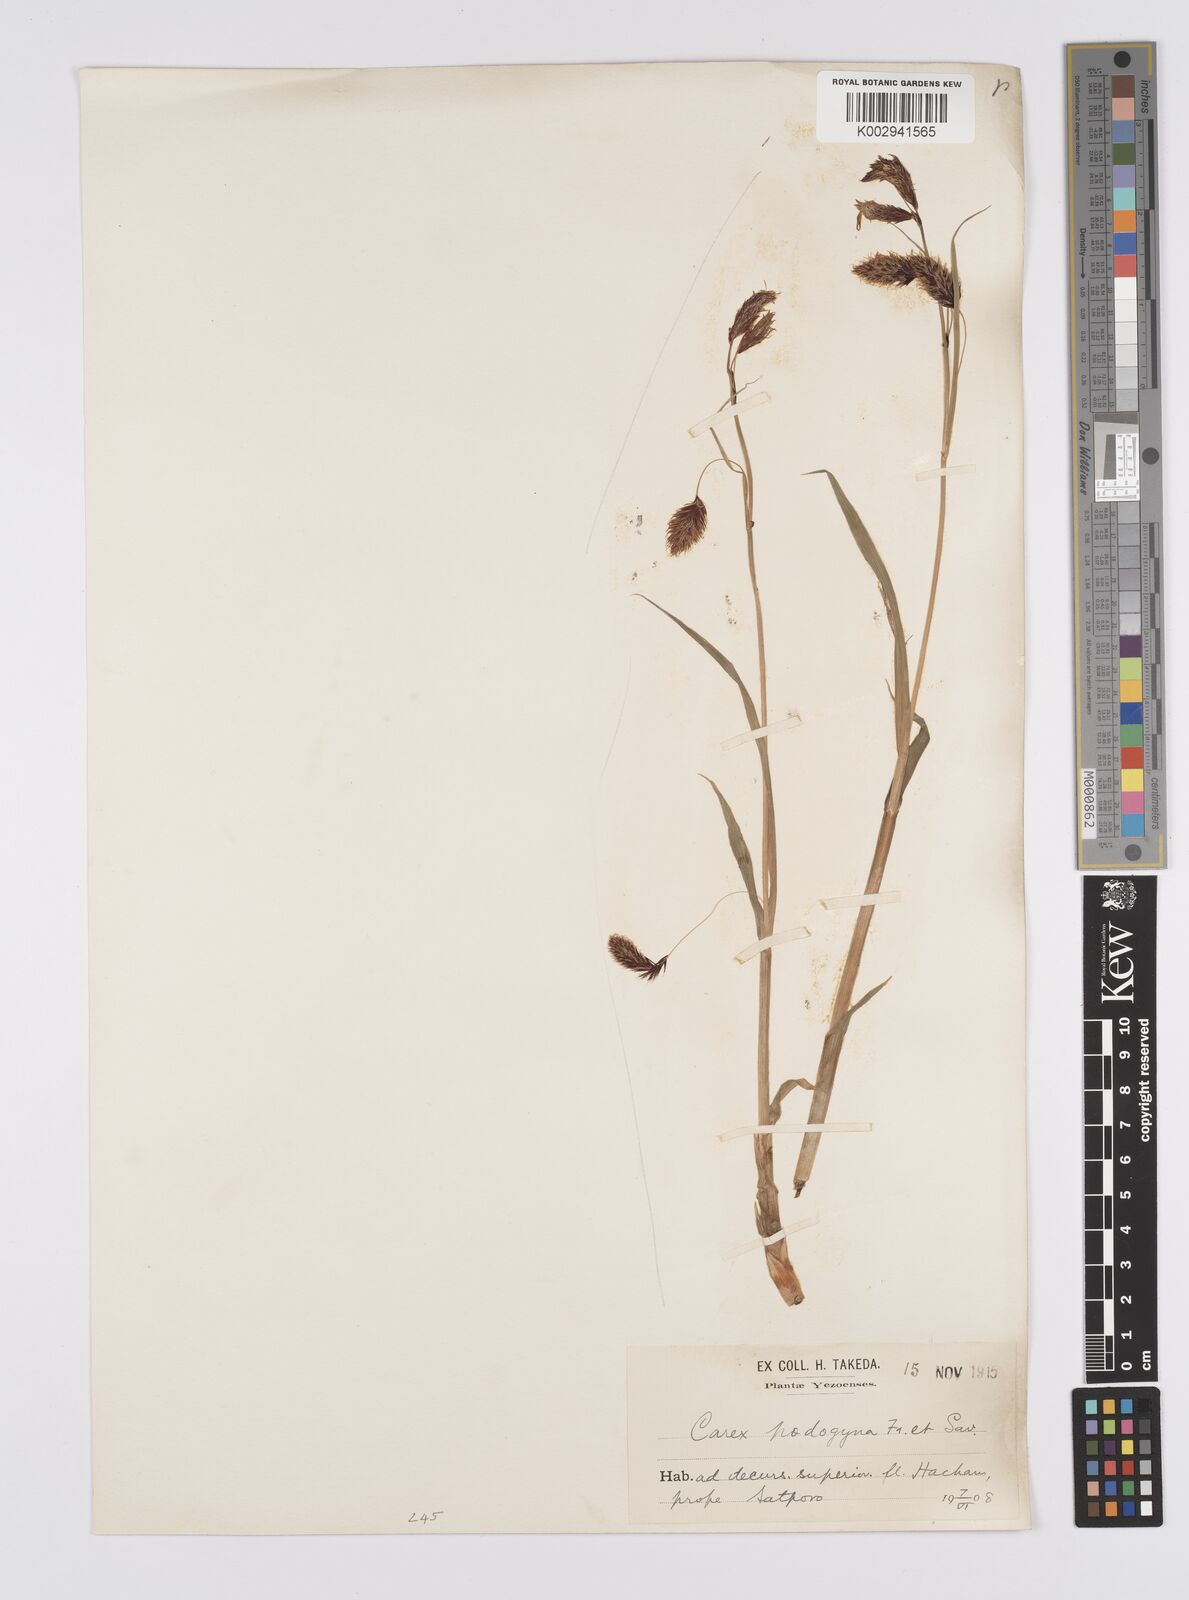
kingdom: Plantae
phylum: Tracheophyta
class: Liliopsida
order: Poales
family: Cyperaceae
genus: Carex
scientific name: Carex podogyna
